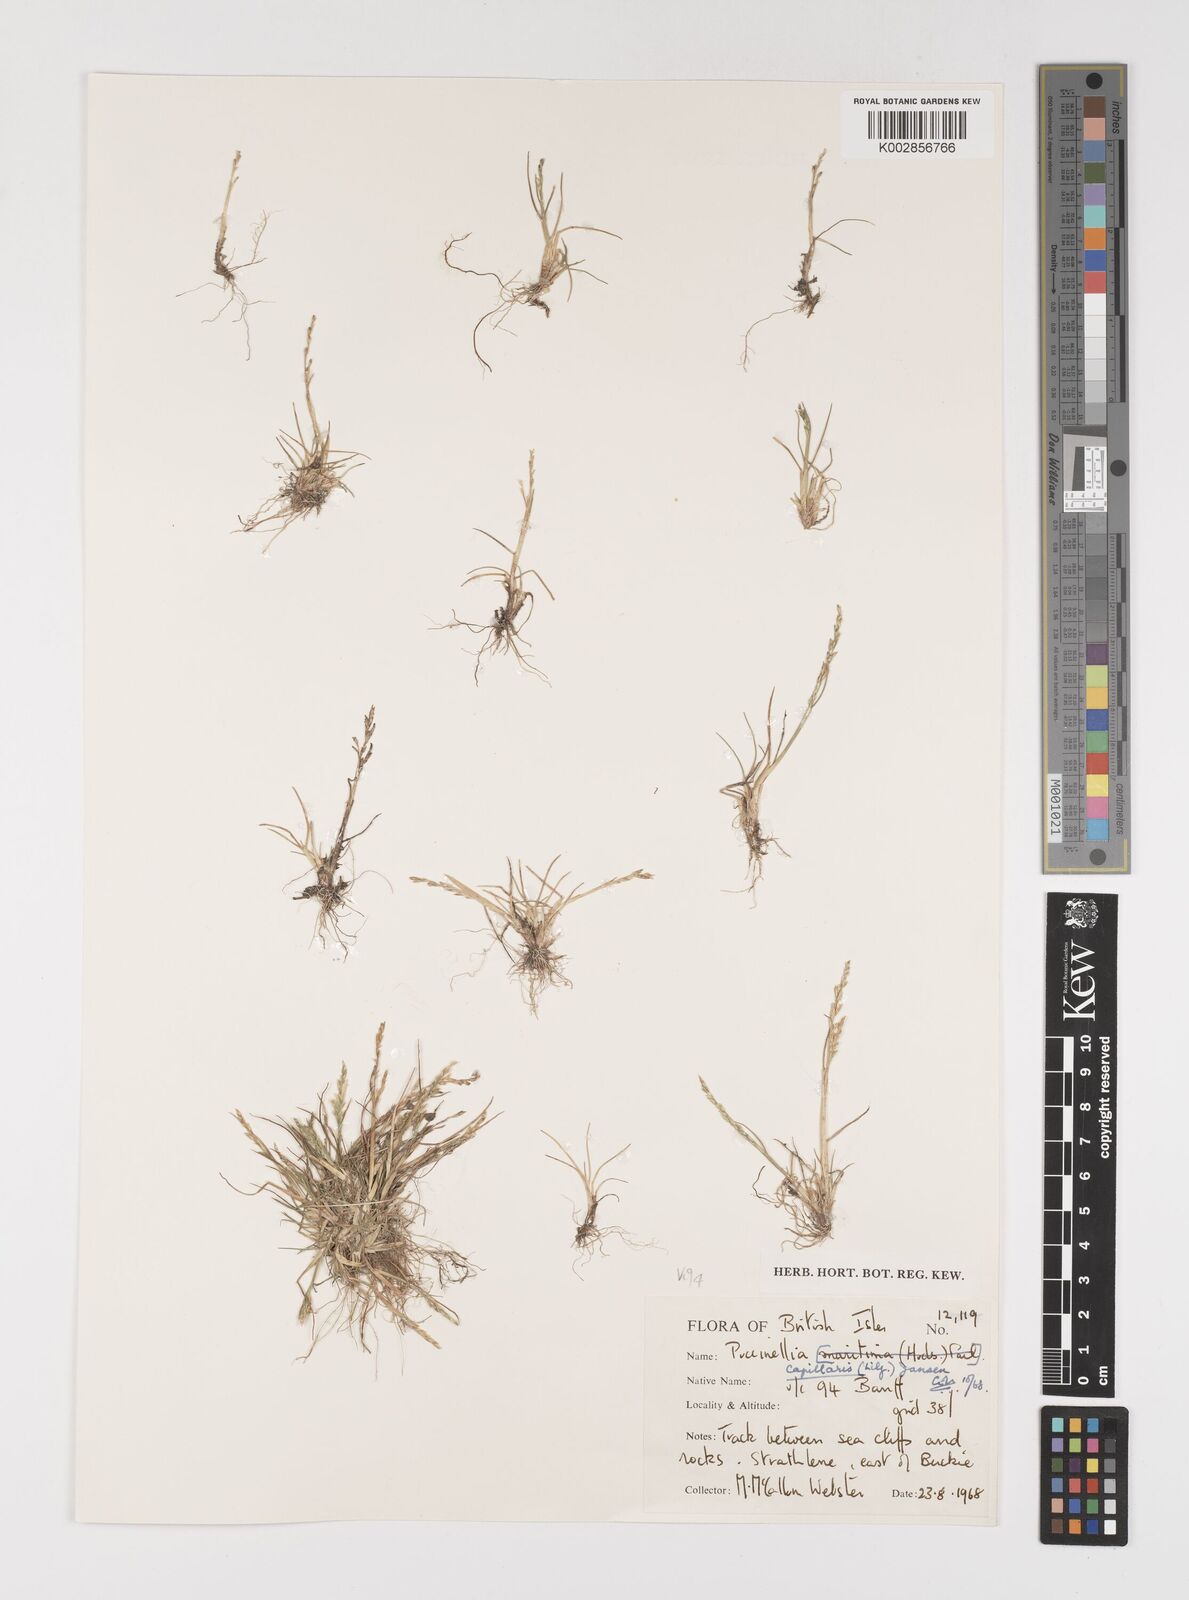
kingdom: Plantae
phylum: Tracheophyta
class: Liliopsida
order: Poales
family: Poaceae
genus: Puccinellia
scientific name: Puccinellia distans
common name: Weeping alkaligrass
